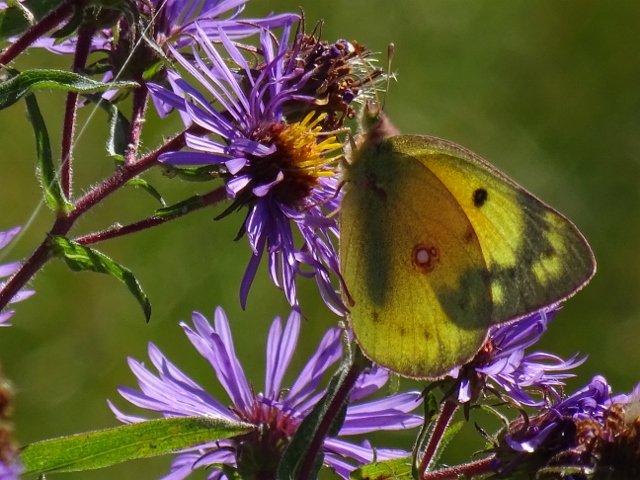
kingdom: Animalia
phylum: Arthropoda
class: Insecta
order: Lepidoptera
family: Pieridae
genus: Colias
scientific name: Colias eurytheme
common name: Orange Sulphur
